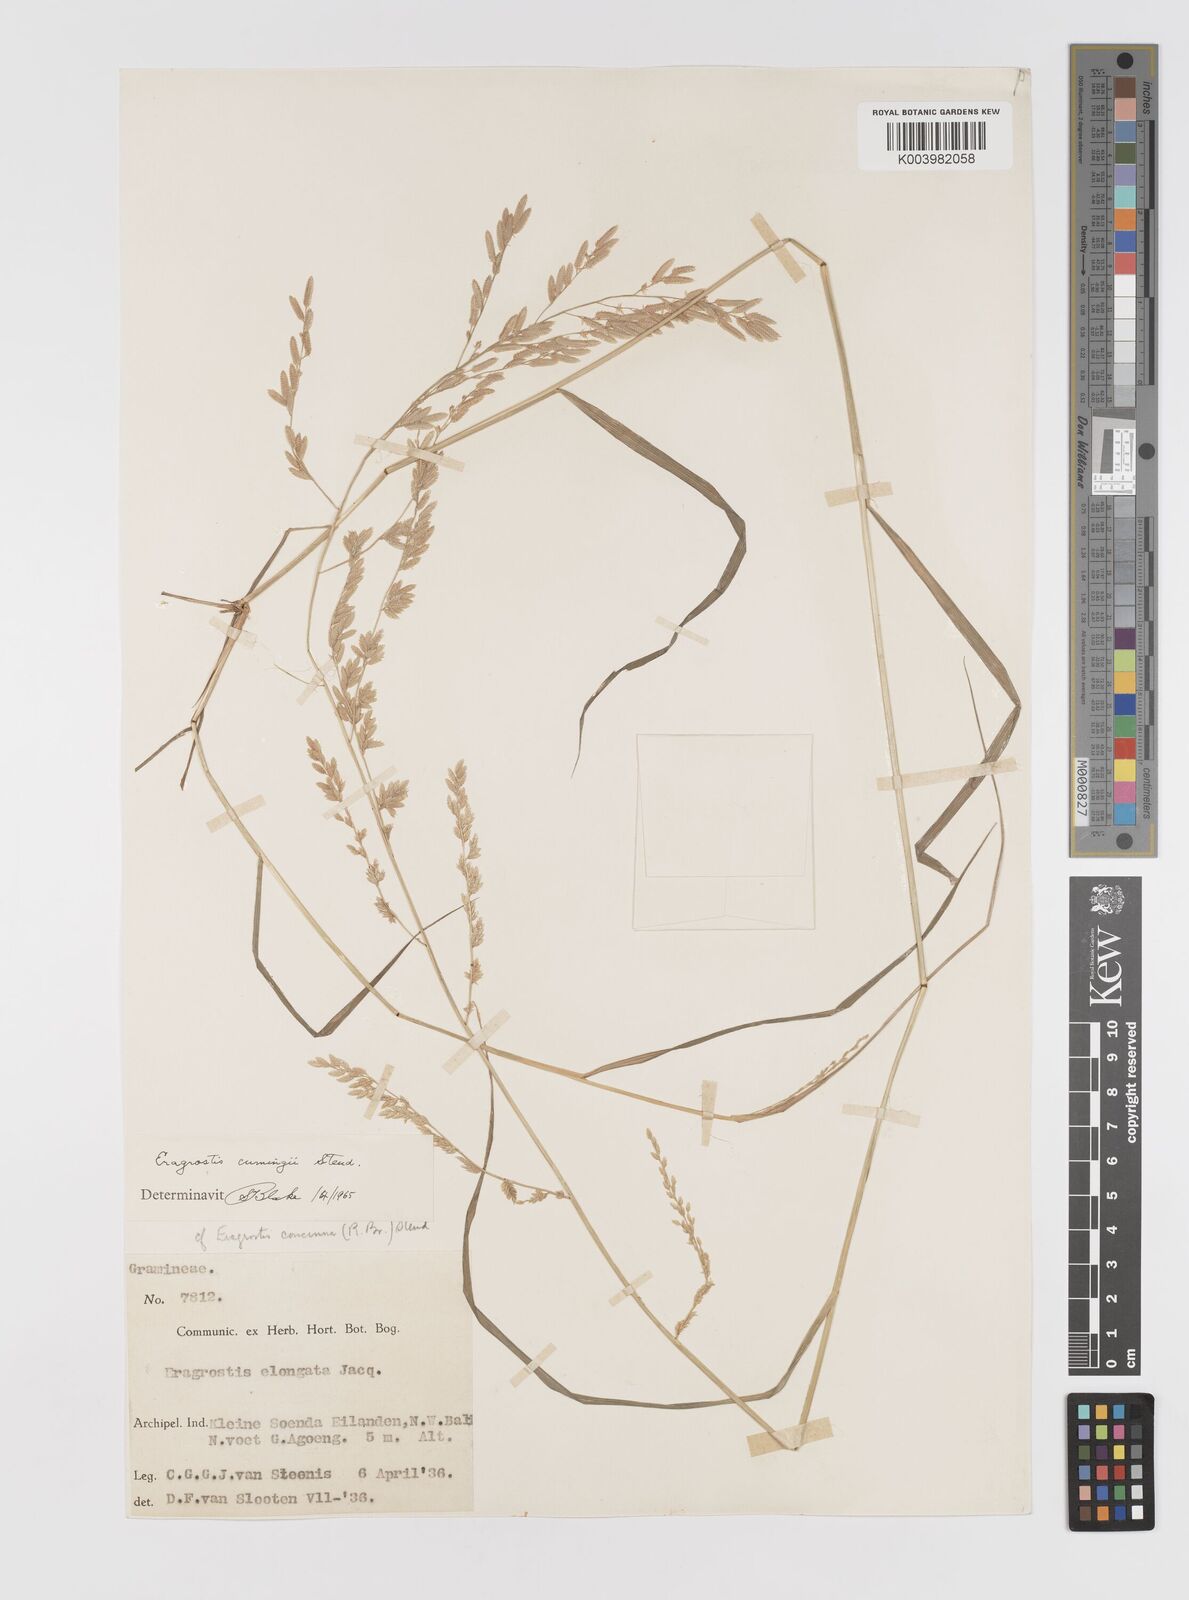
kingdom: Plantae
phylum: Tracheophyta
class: Liliopsida
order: Poales
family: Poaceae
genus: Eragrostis
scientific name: Eragrostis cumingii
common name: Cuming's lovegrass
